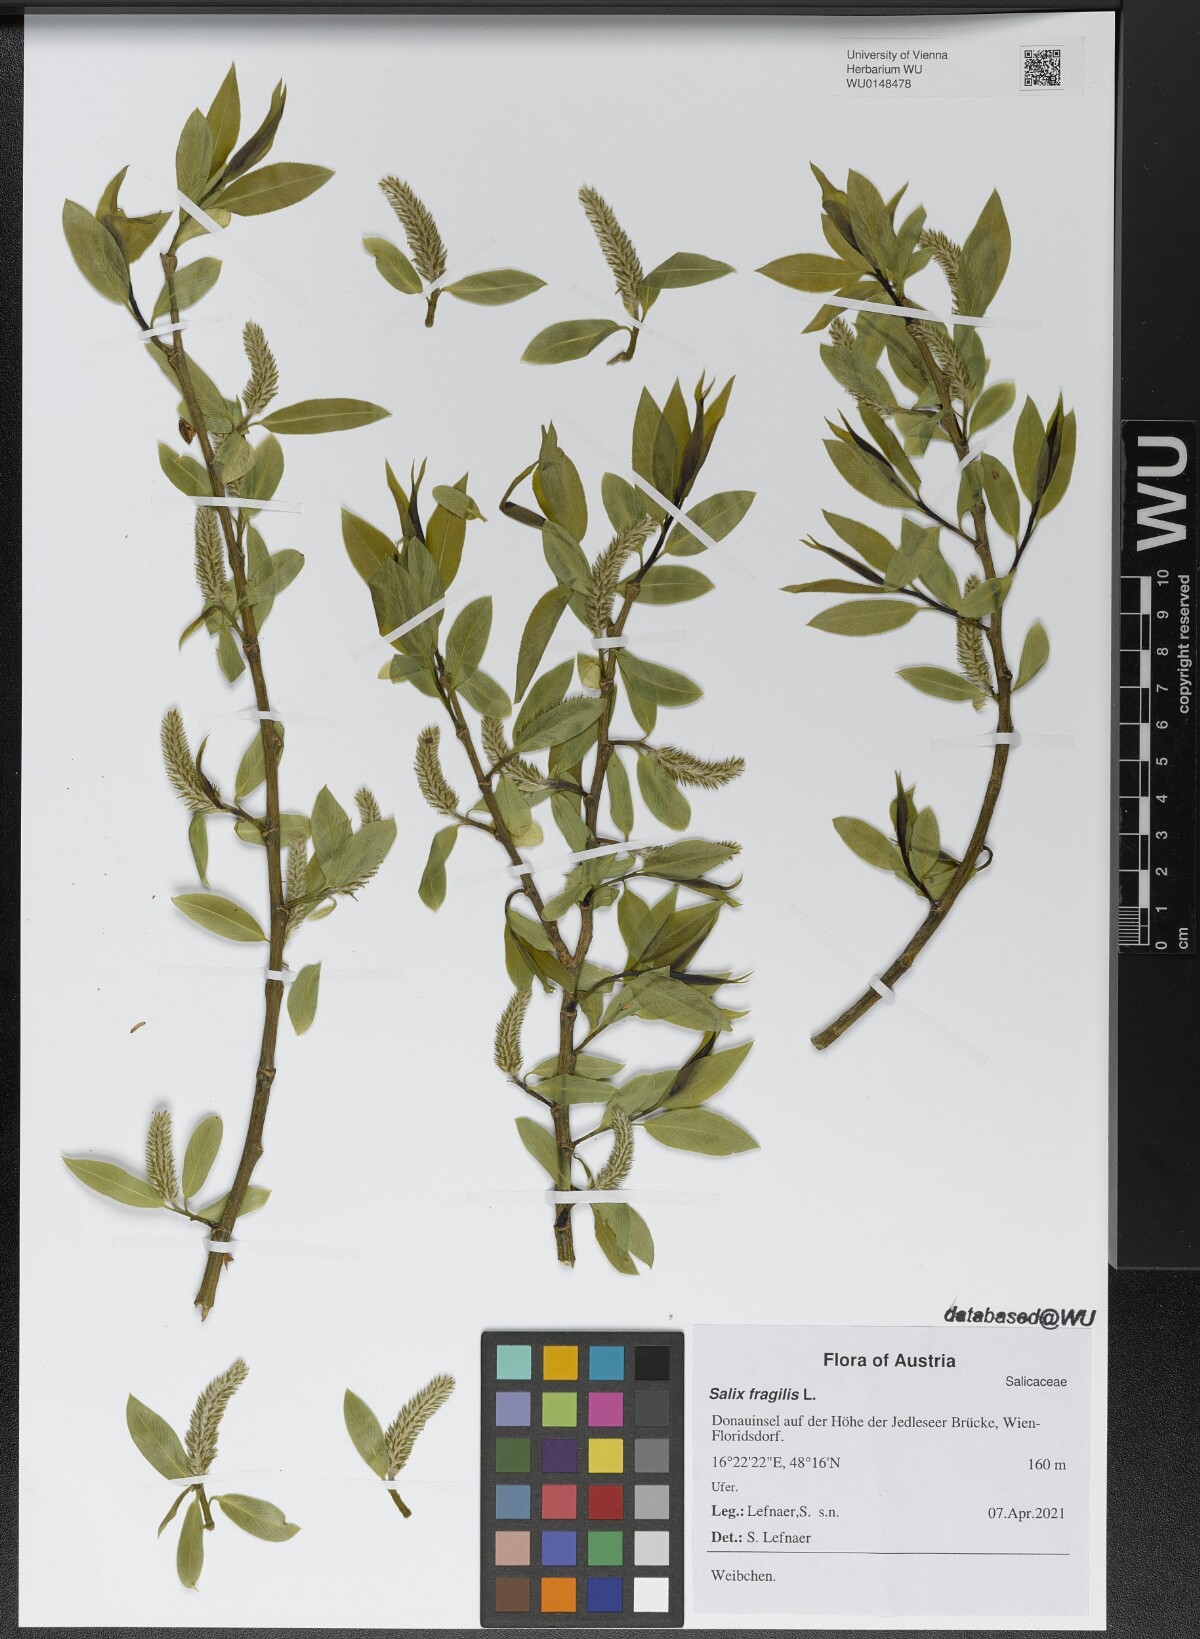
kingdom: Plantae
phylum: Tracheophyta
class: Magnoliopsida
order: Malpighiales
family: Salicaceae
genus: Salix
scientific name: Salix fragilis
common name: Crack willow
